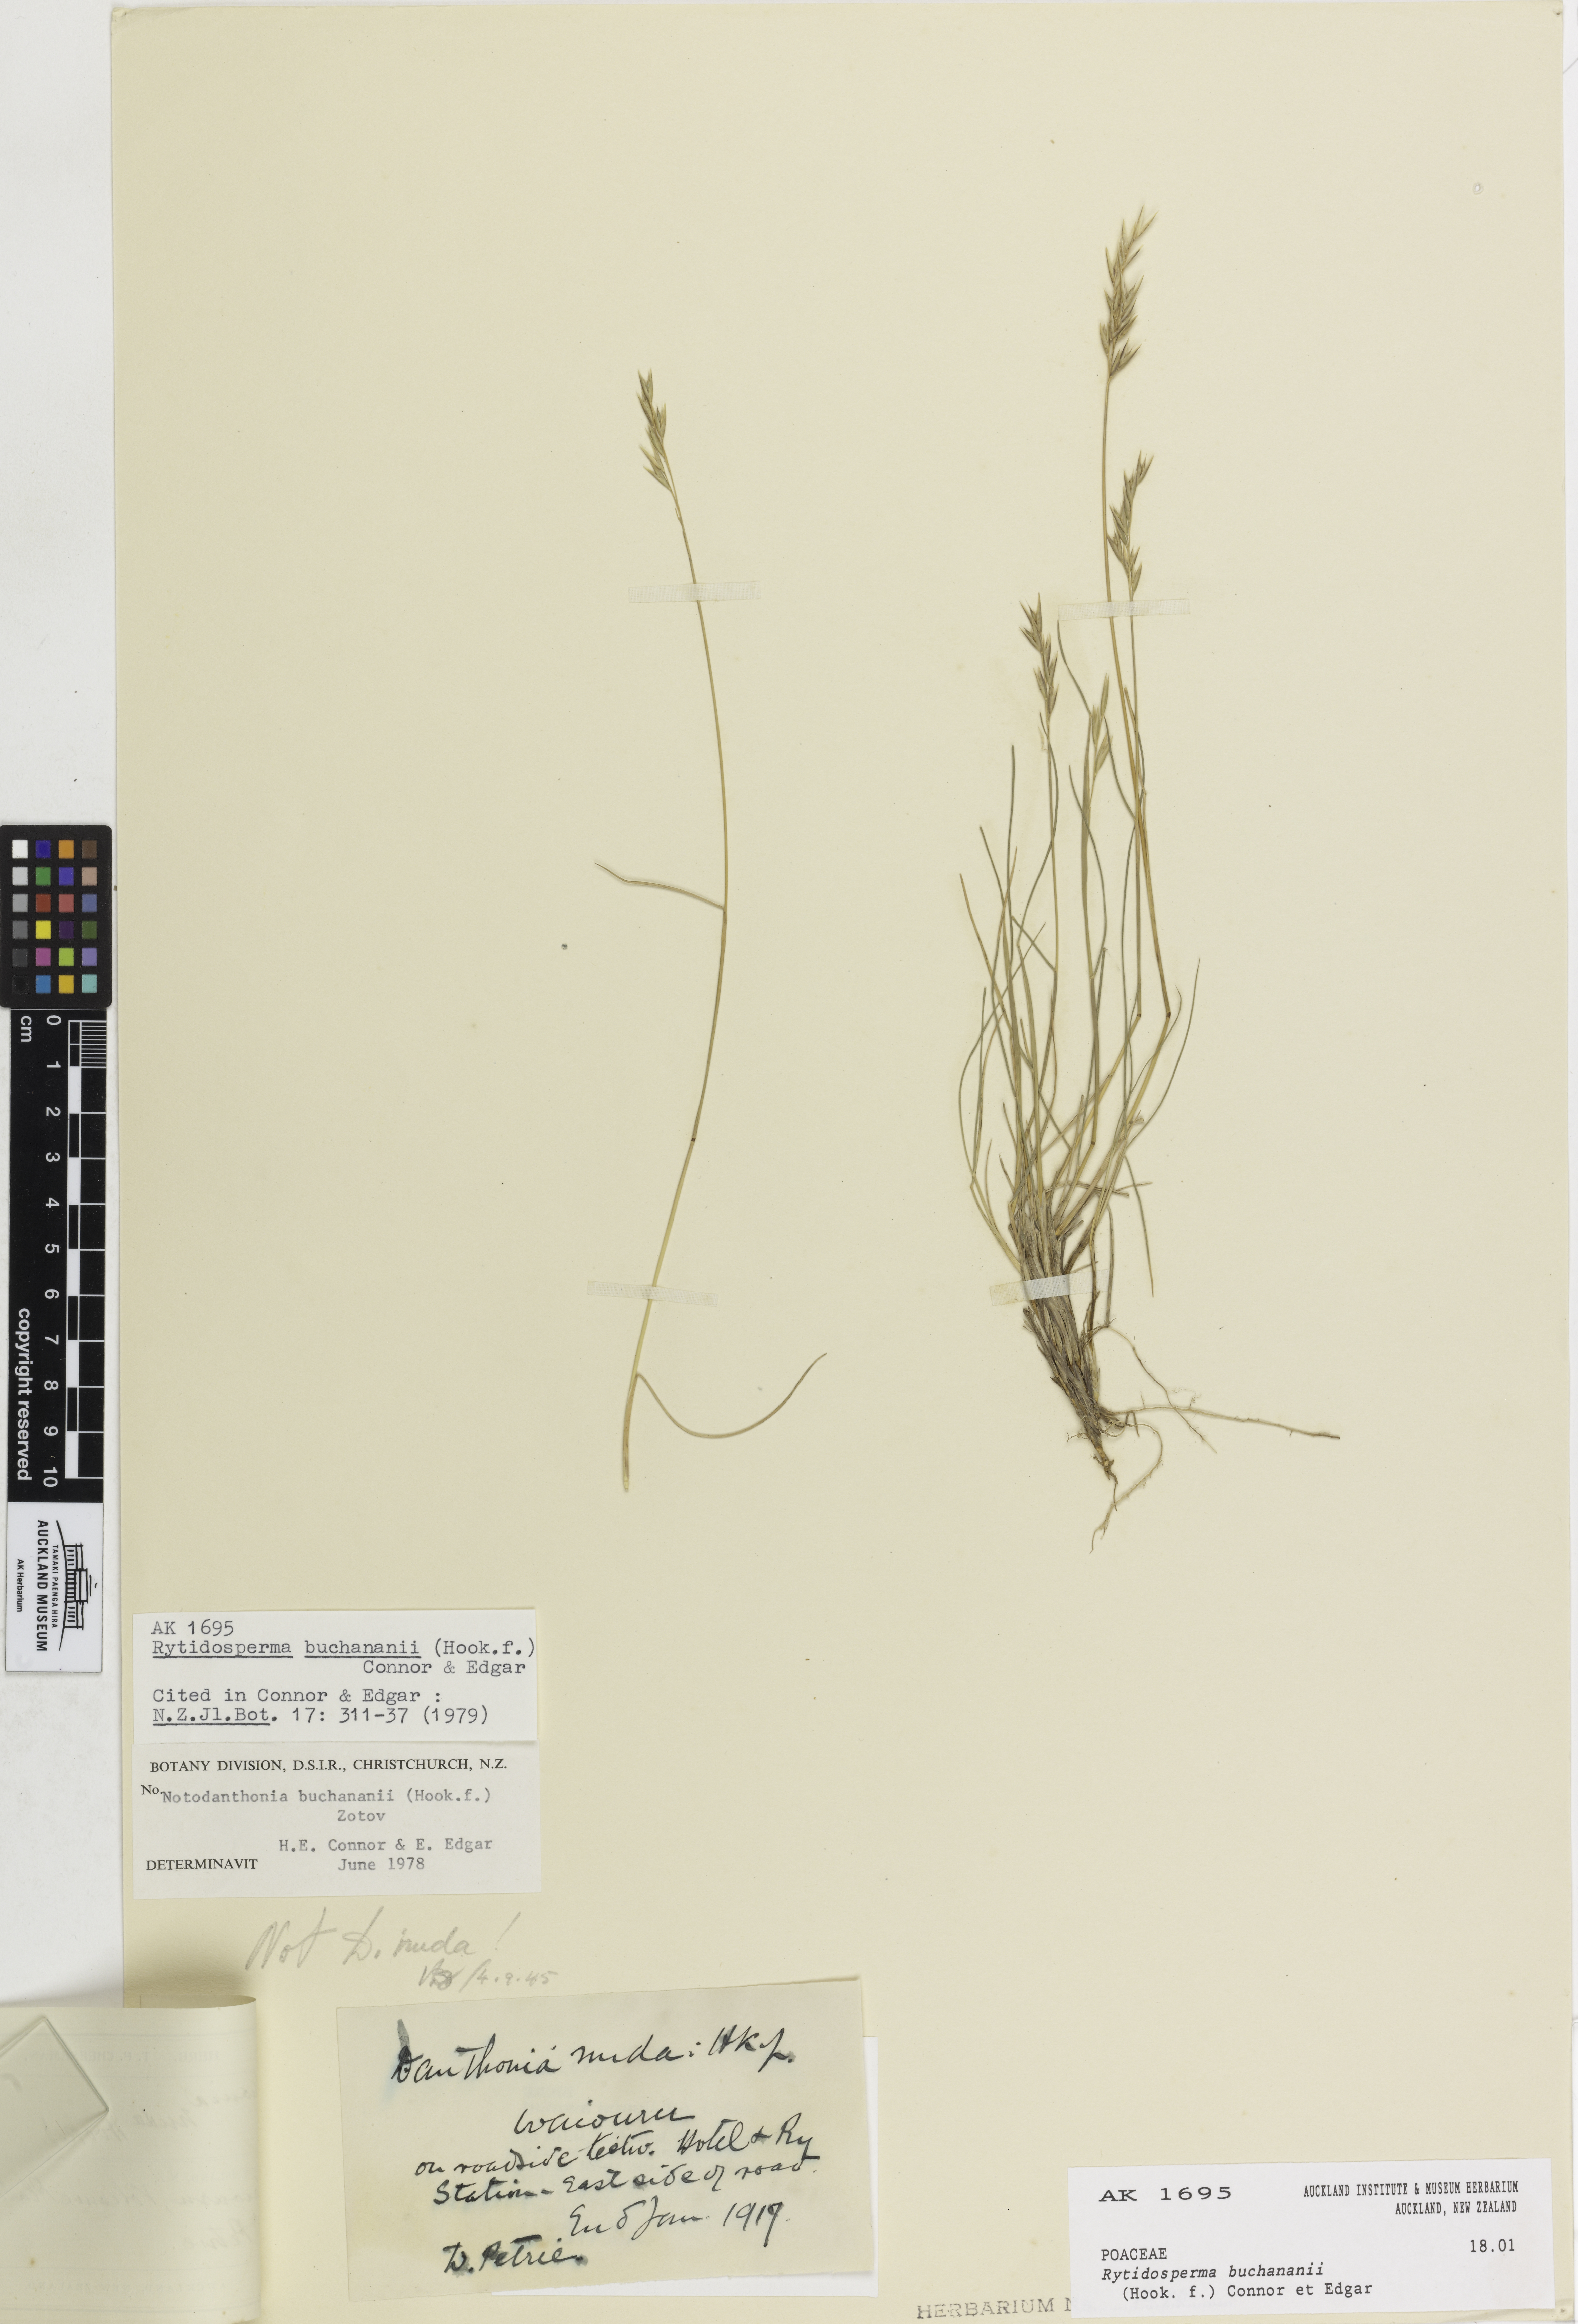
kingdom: Plantae
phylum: Tracheophyta
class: Liliopsida
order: Poales
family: Poaceae
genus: Rytidosperma
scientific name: Rytidosperma buchananii
